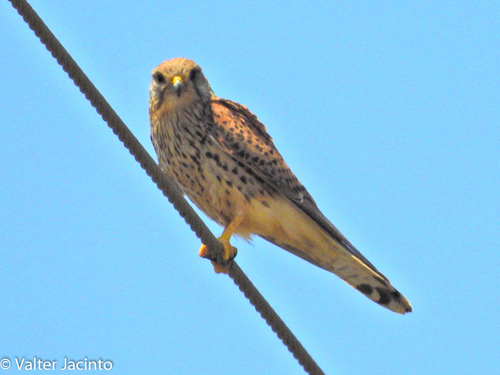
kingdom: Animalia
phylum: Chordata
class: Aves
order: Falconiformes
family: Falconidae
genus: Falco
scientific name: Falco tinnunculus
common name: Common kestrel
